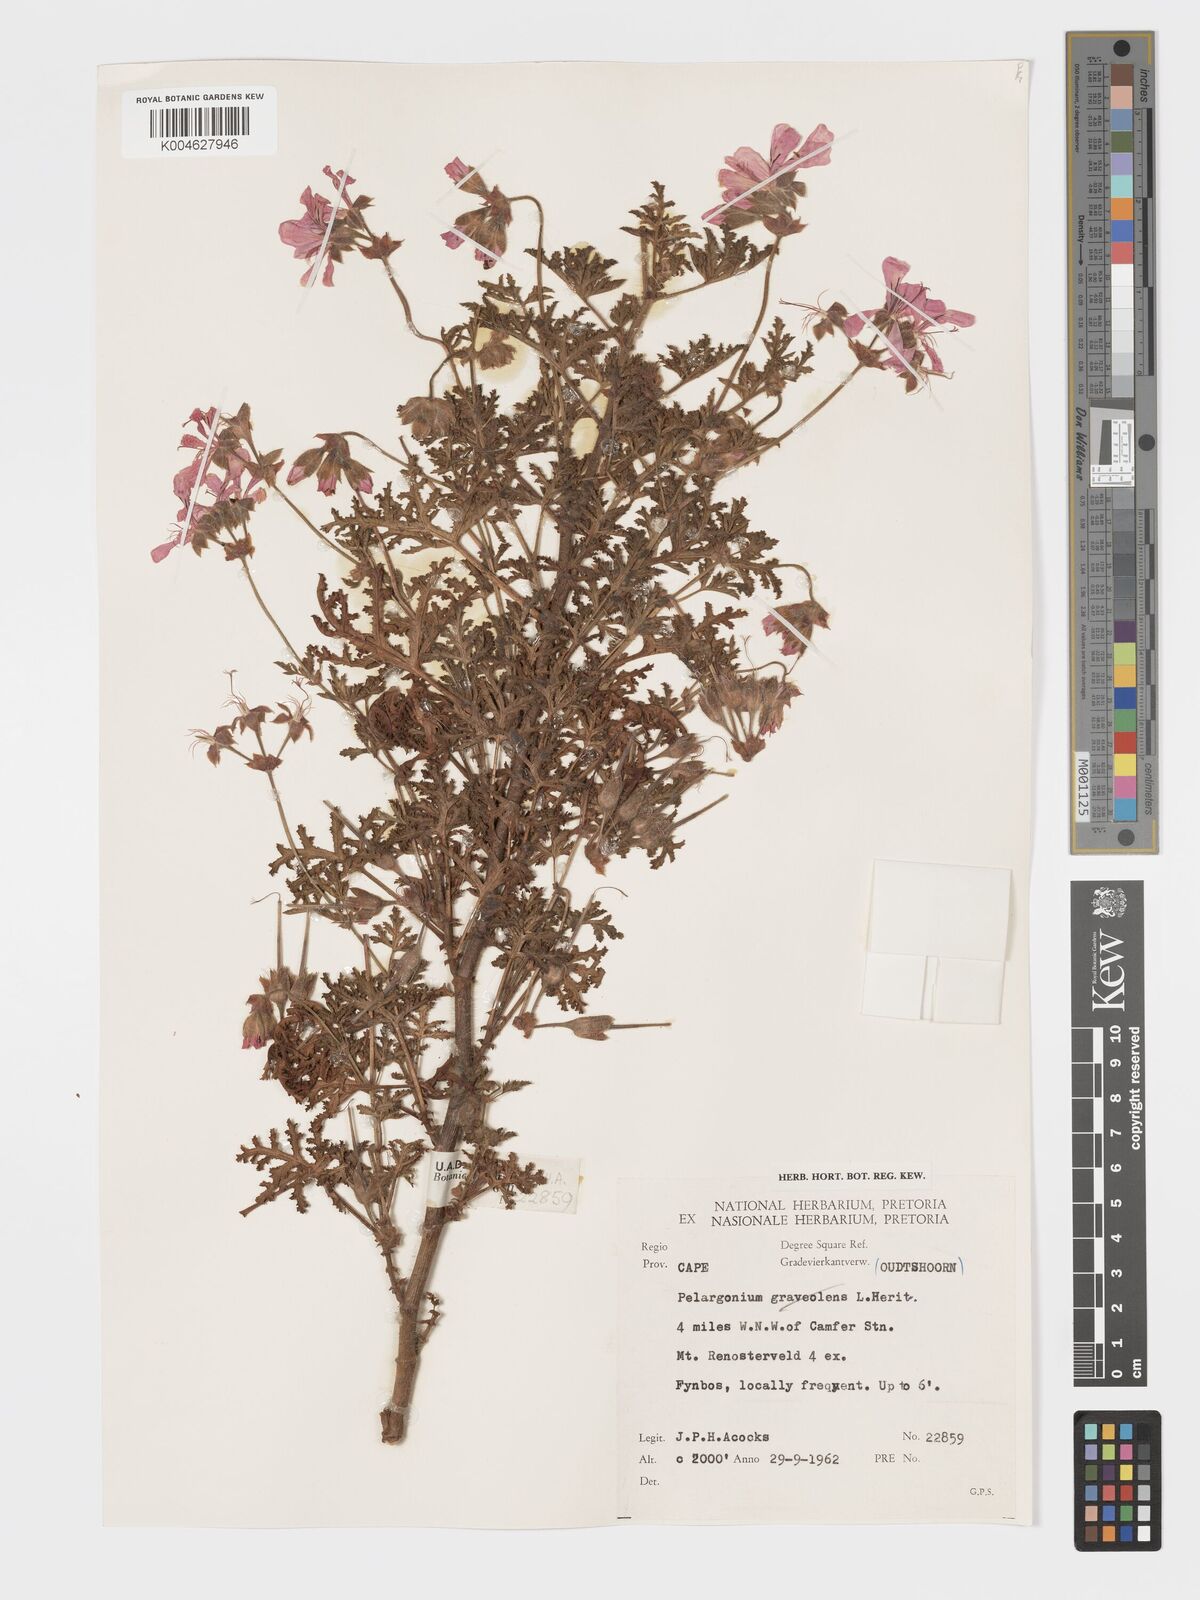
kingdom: Plantae
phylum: Tracheophyta
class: Magnoliopsida
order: Geraniales
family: Geraniaceae
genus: Pelargonium
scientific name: Pelargonium quercifolium
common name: Oakleaf geranium
